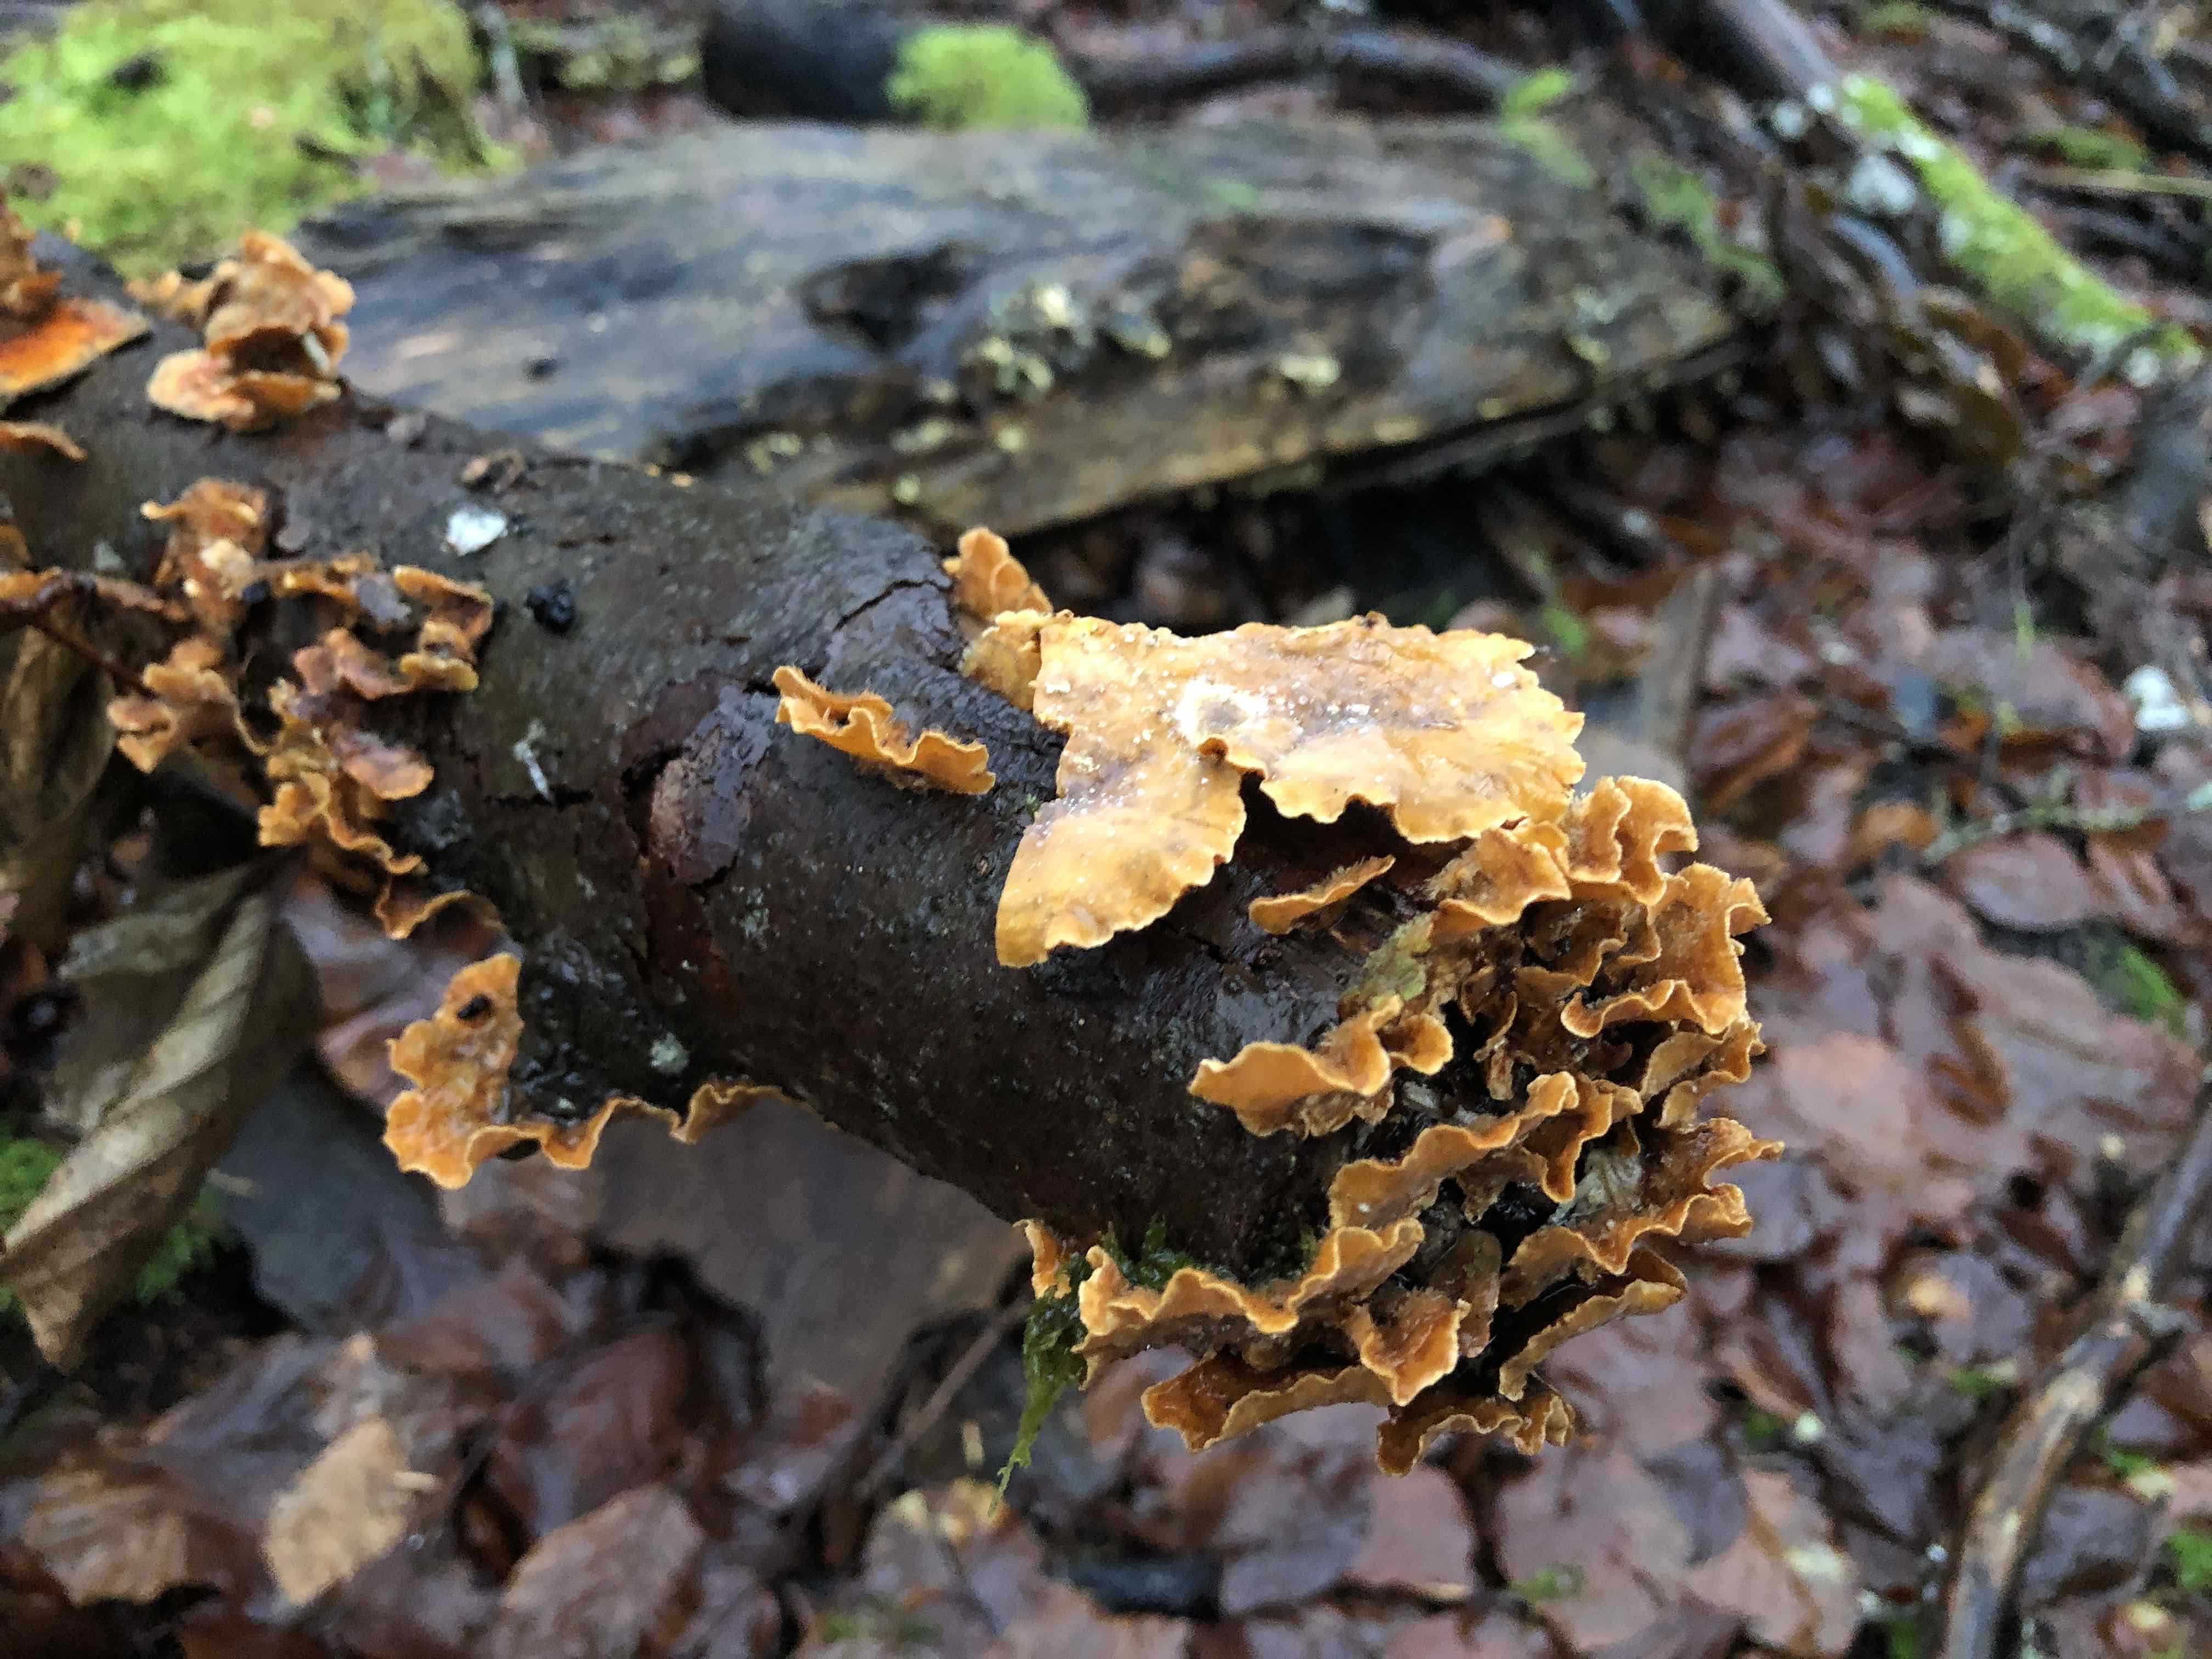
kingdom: Fungi
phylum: Basidiomycota
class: Agaricomycetes
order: Russulales
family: Stereaceae
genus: Stereum
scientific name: Stereum hirsutum
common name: håret lædersvamp
